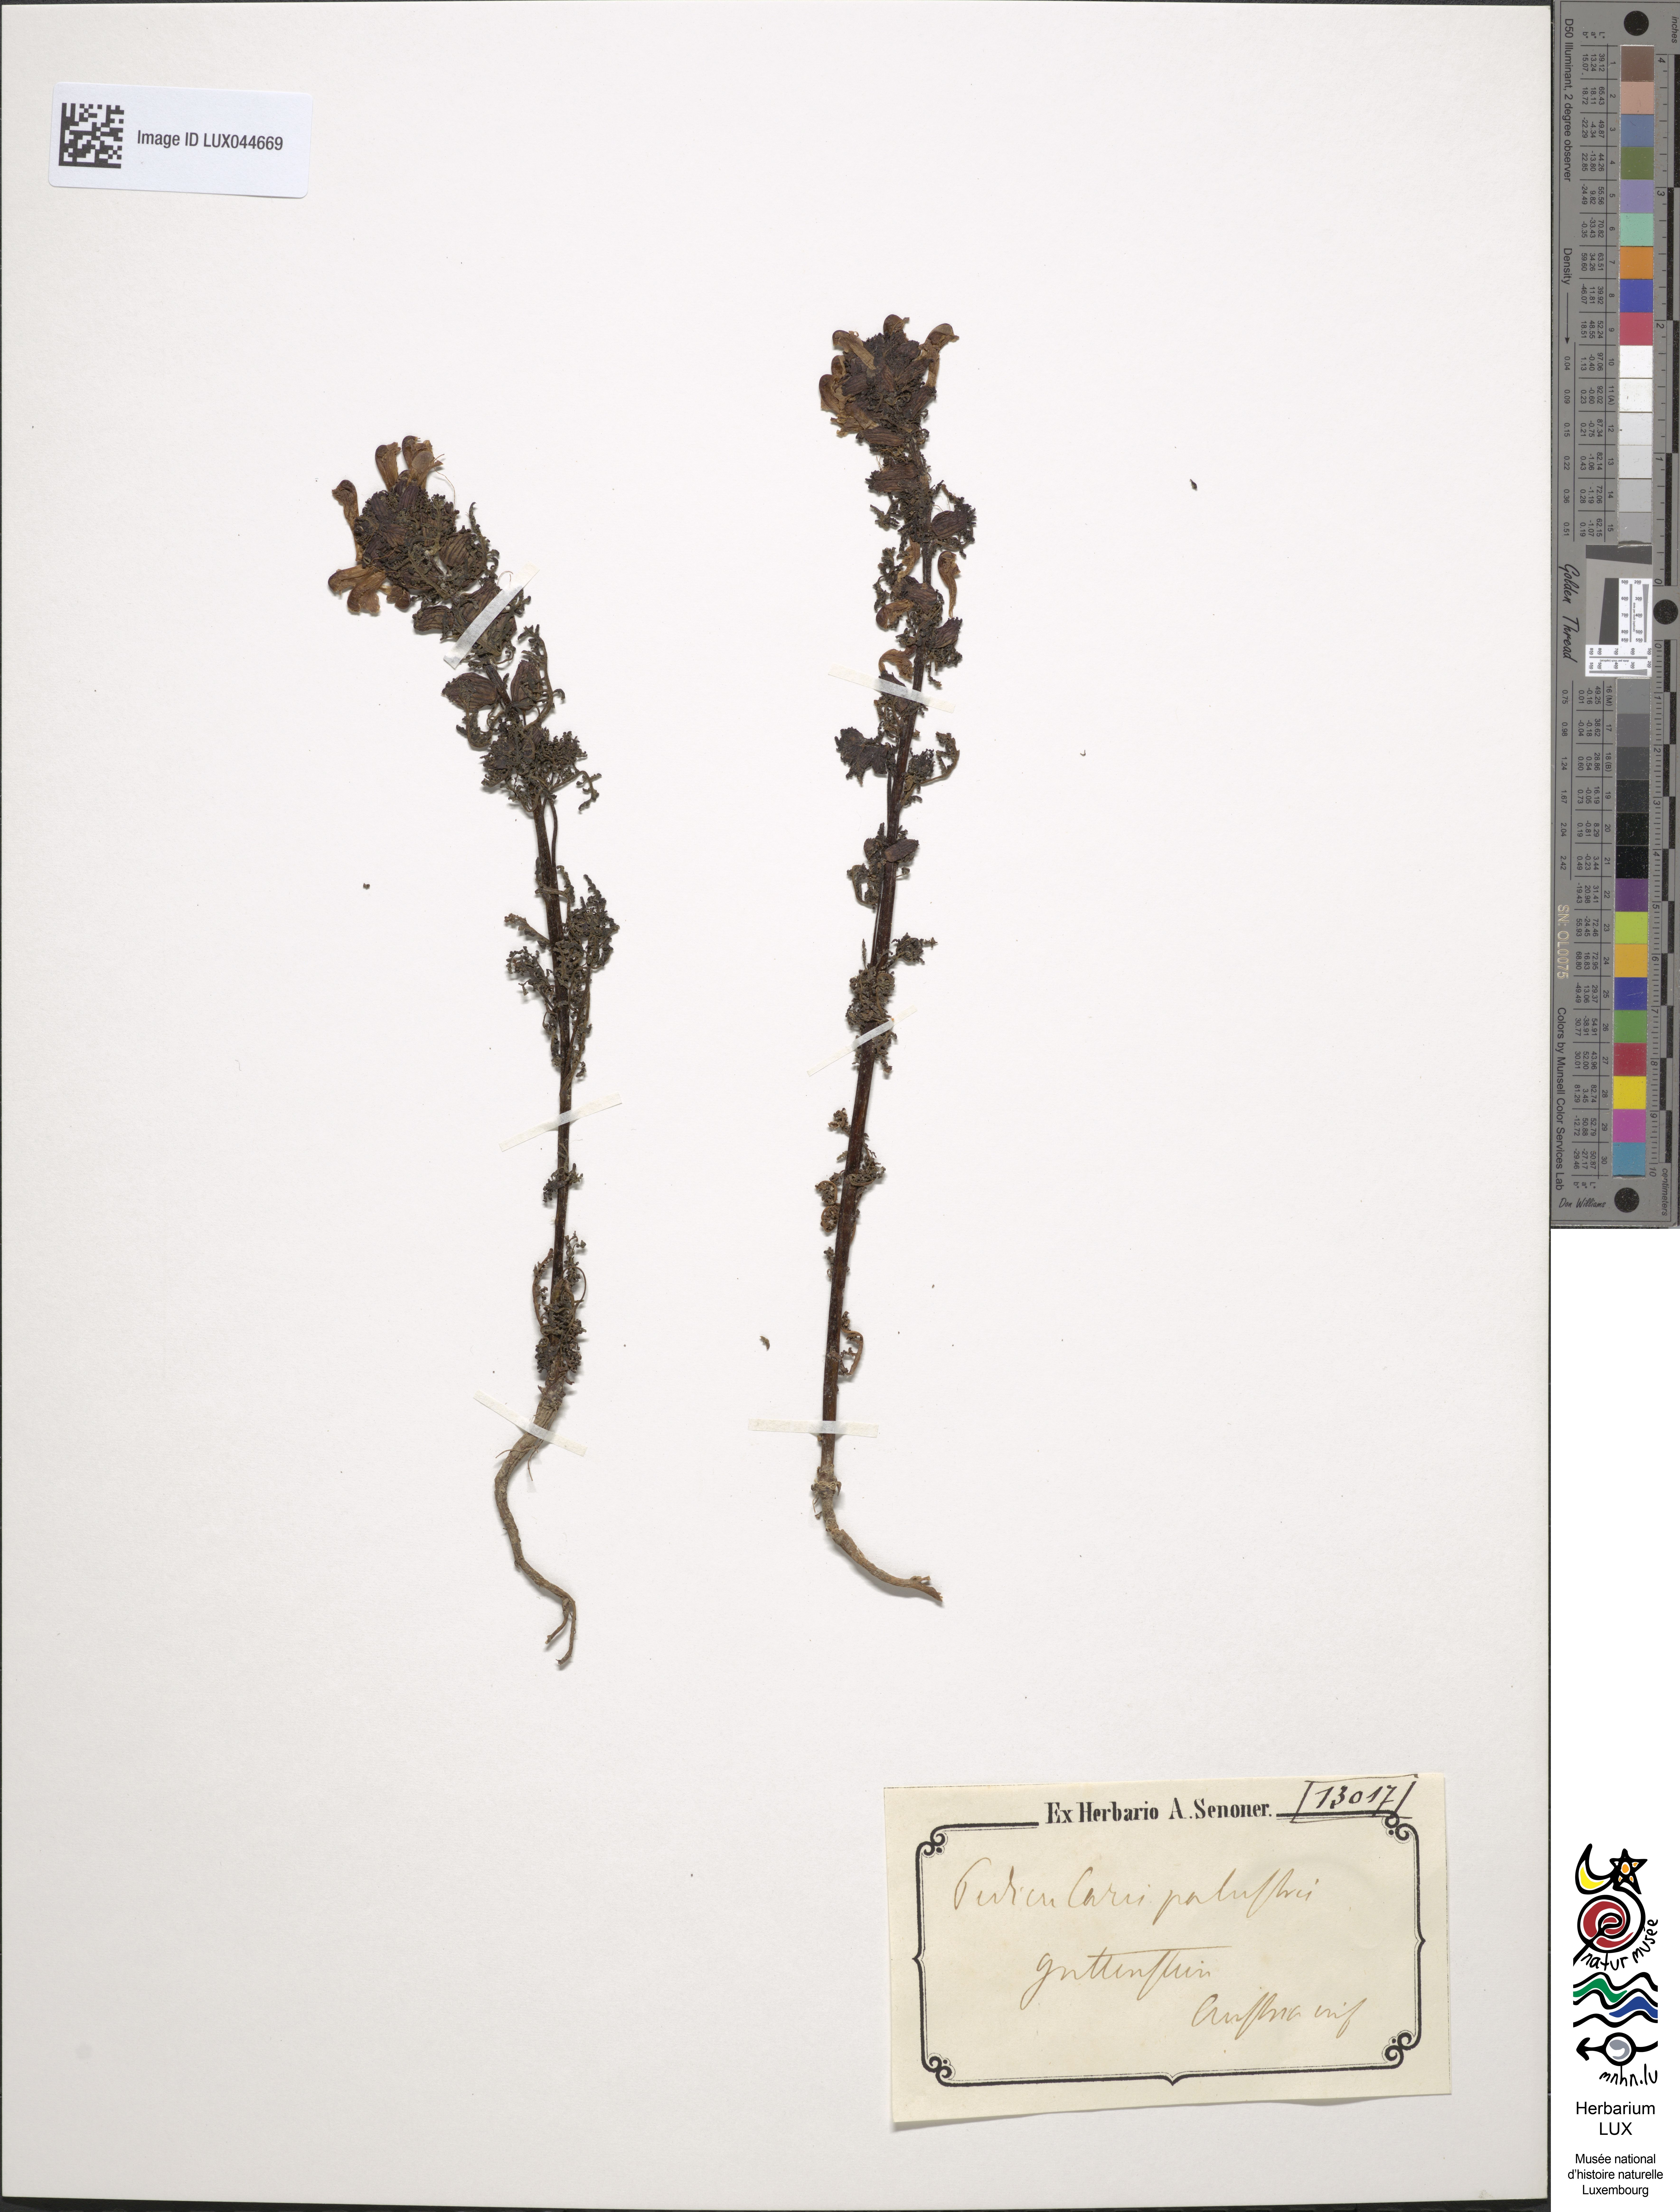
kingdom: Plantae
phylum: Tracheophyta
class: Magnoliopsida
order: Lamiales
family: Orobanchaceae
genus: Pedicularis
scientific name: Pedicularis palustris
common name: Marsh lousewort
